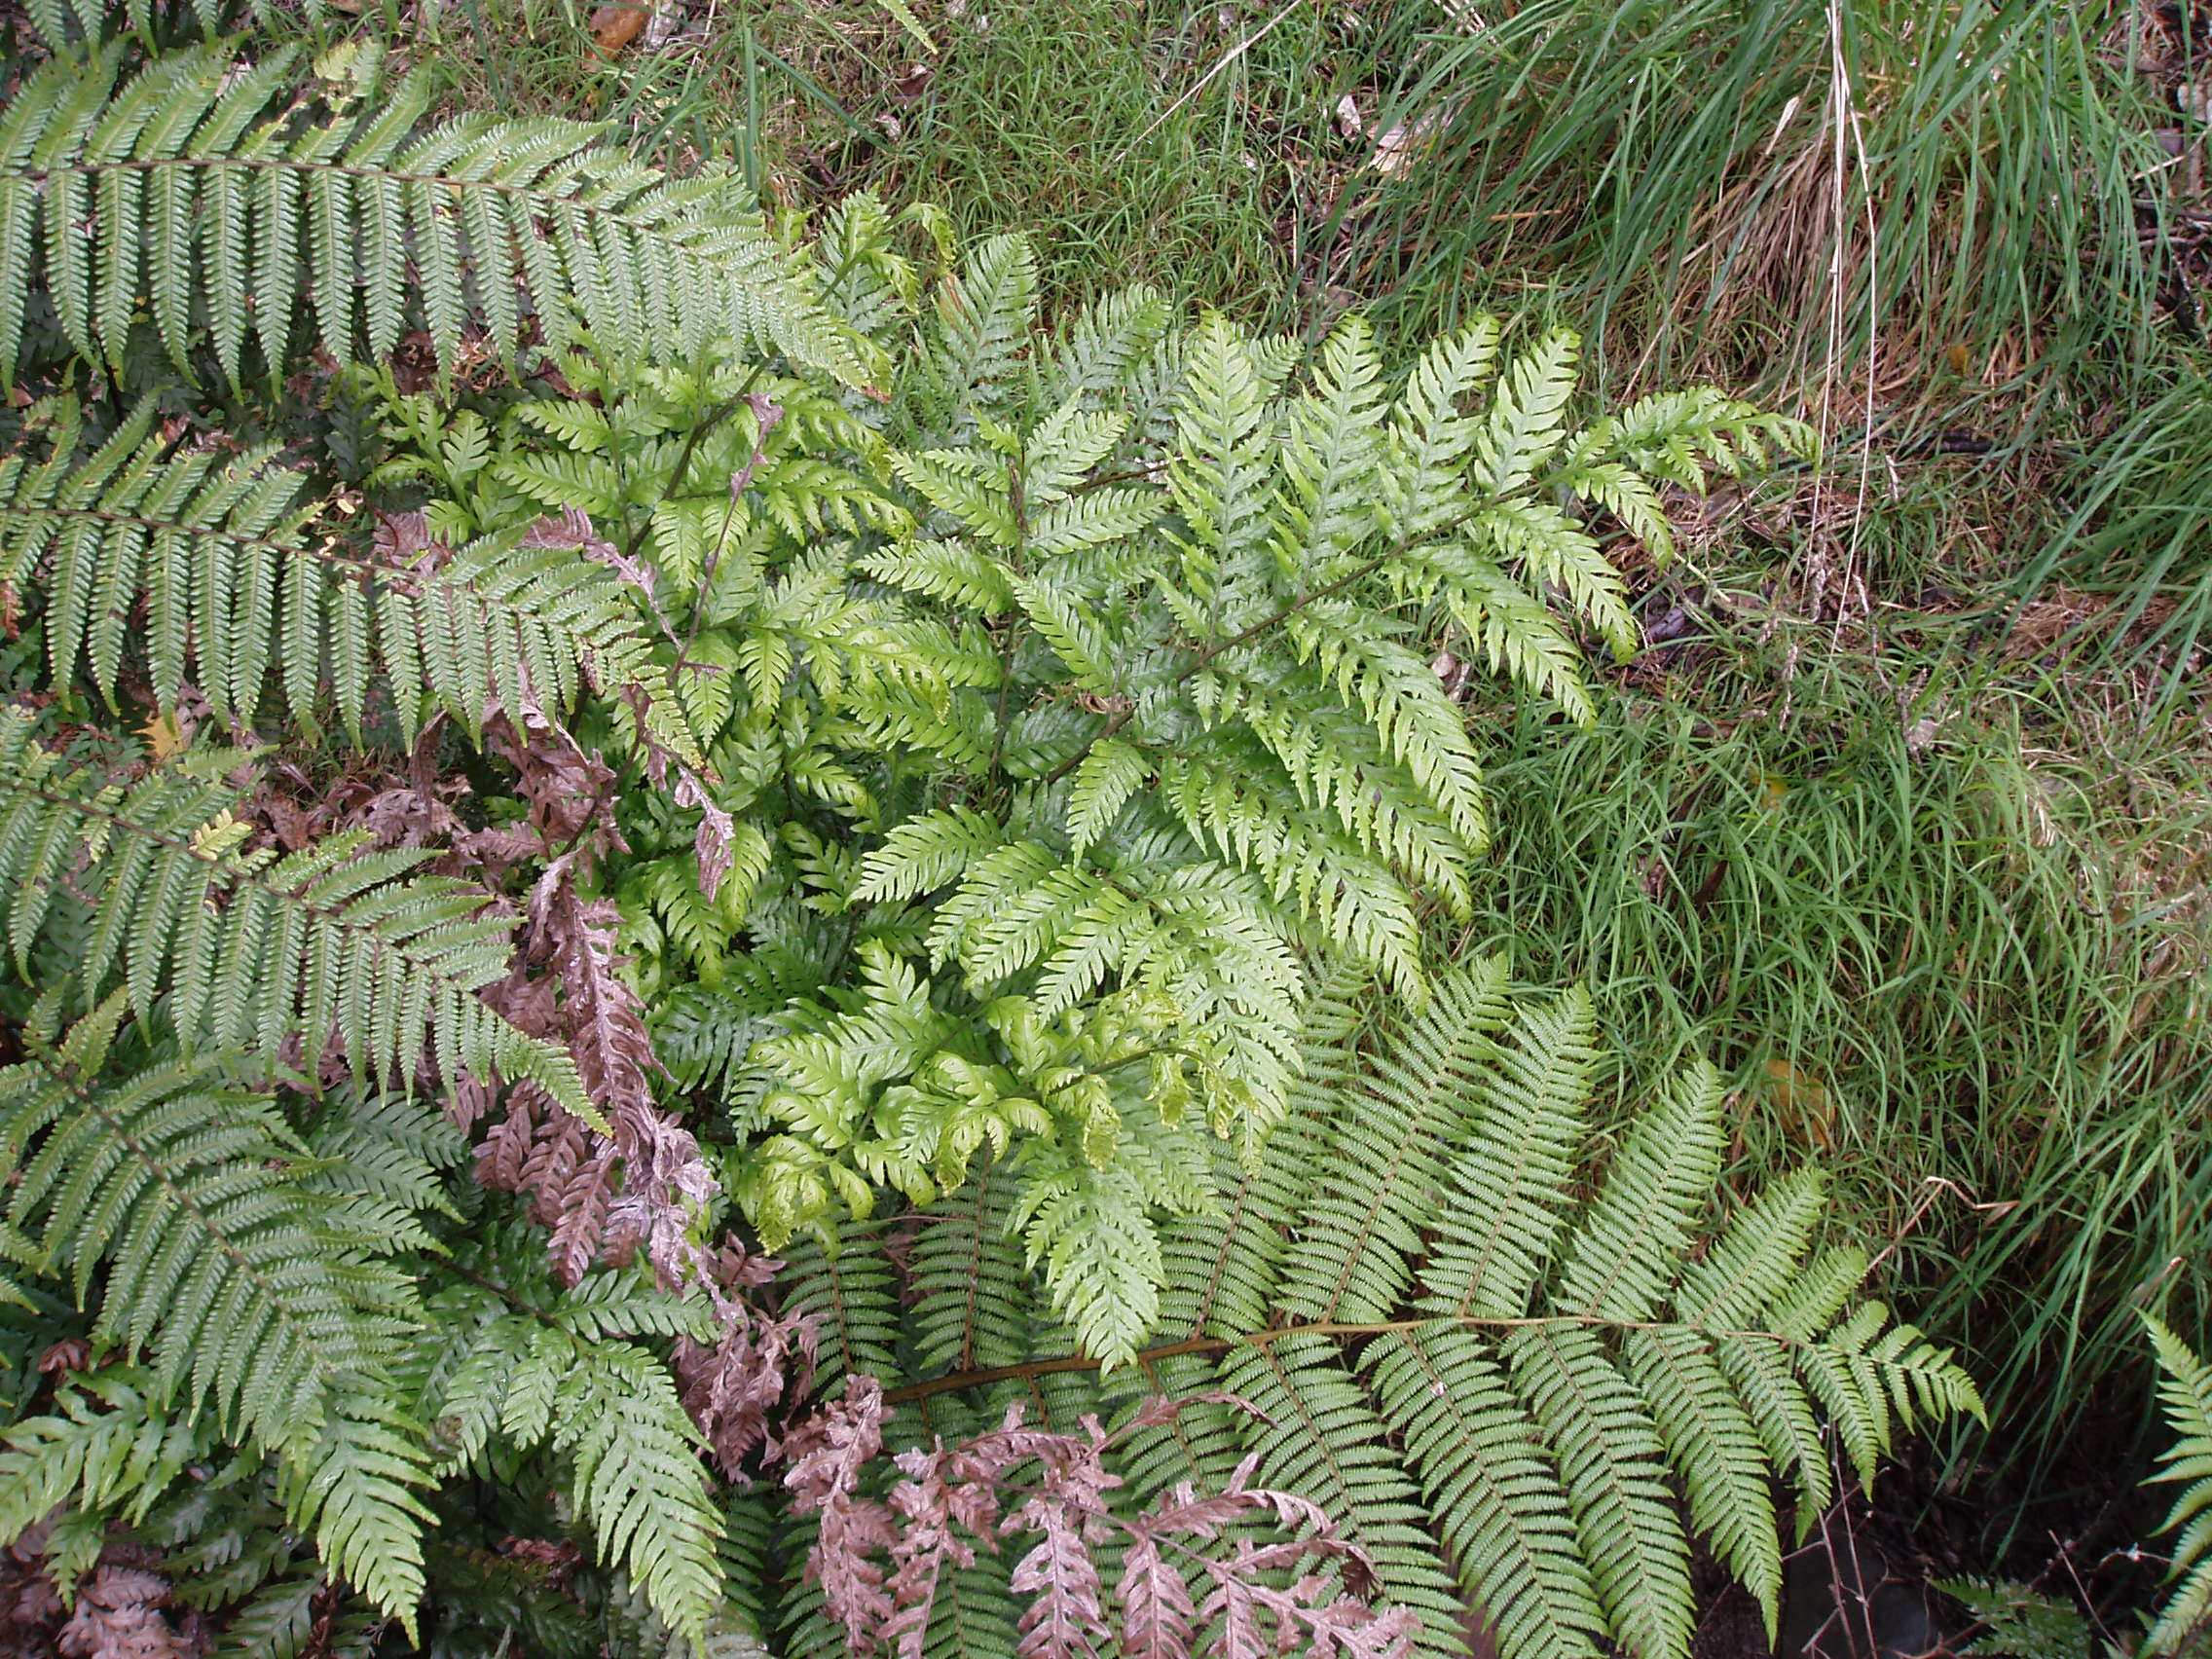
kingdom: Plantae
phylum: Tracheophyta
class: Polypodiopsida
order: Polypodiales
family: Pteridaceae
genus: Pteris
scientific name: Pteris comans
